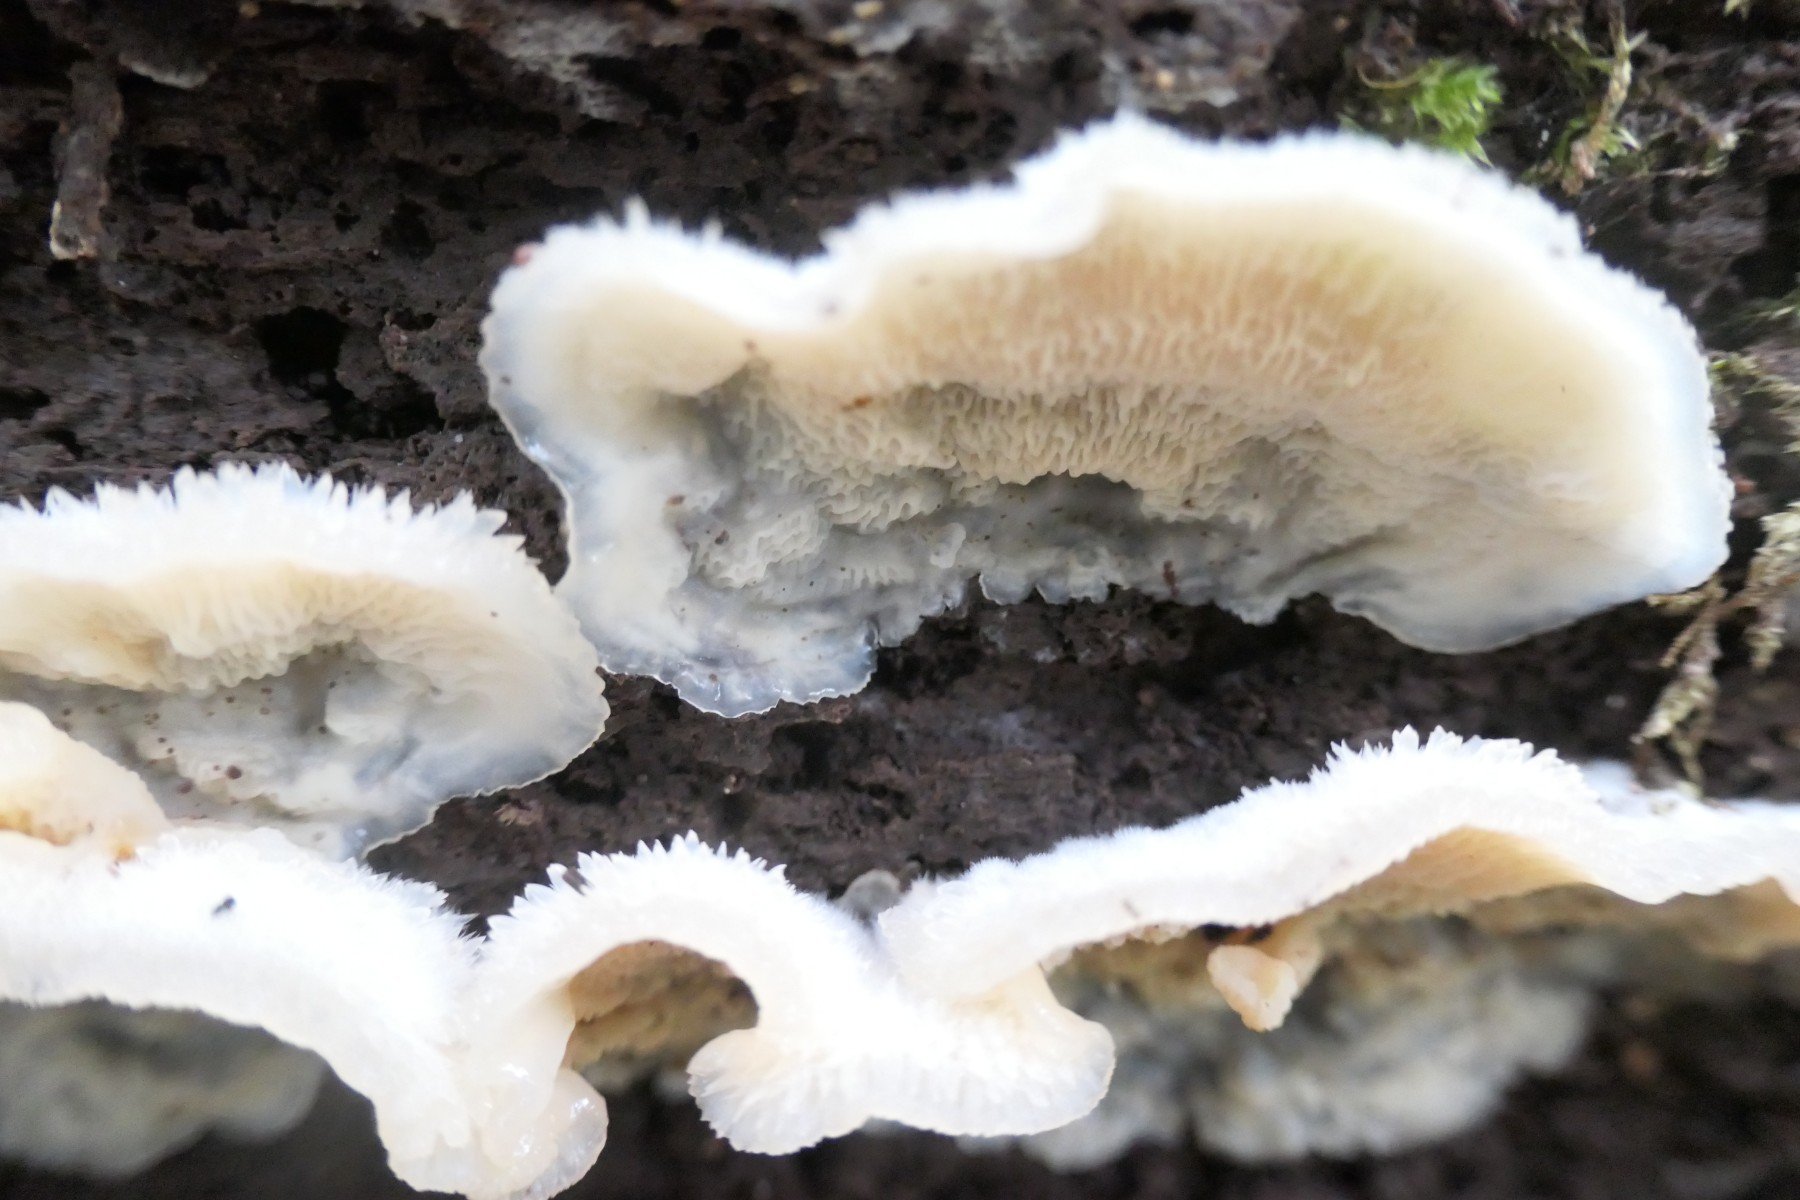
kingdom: Fungi
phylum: Basidiomycota
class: Agaricomycetes
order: Polyporales
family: Meruliaceae
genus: Phlebia
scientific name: Phlebia tremellosa
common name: bævrende åresvamp
